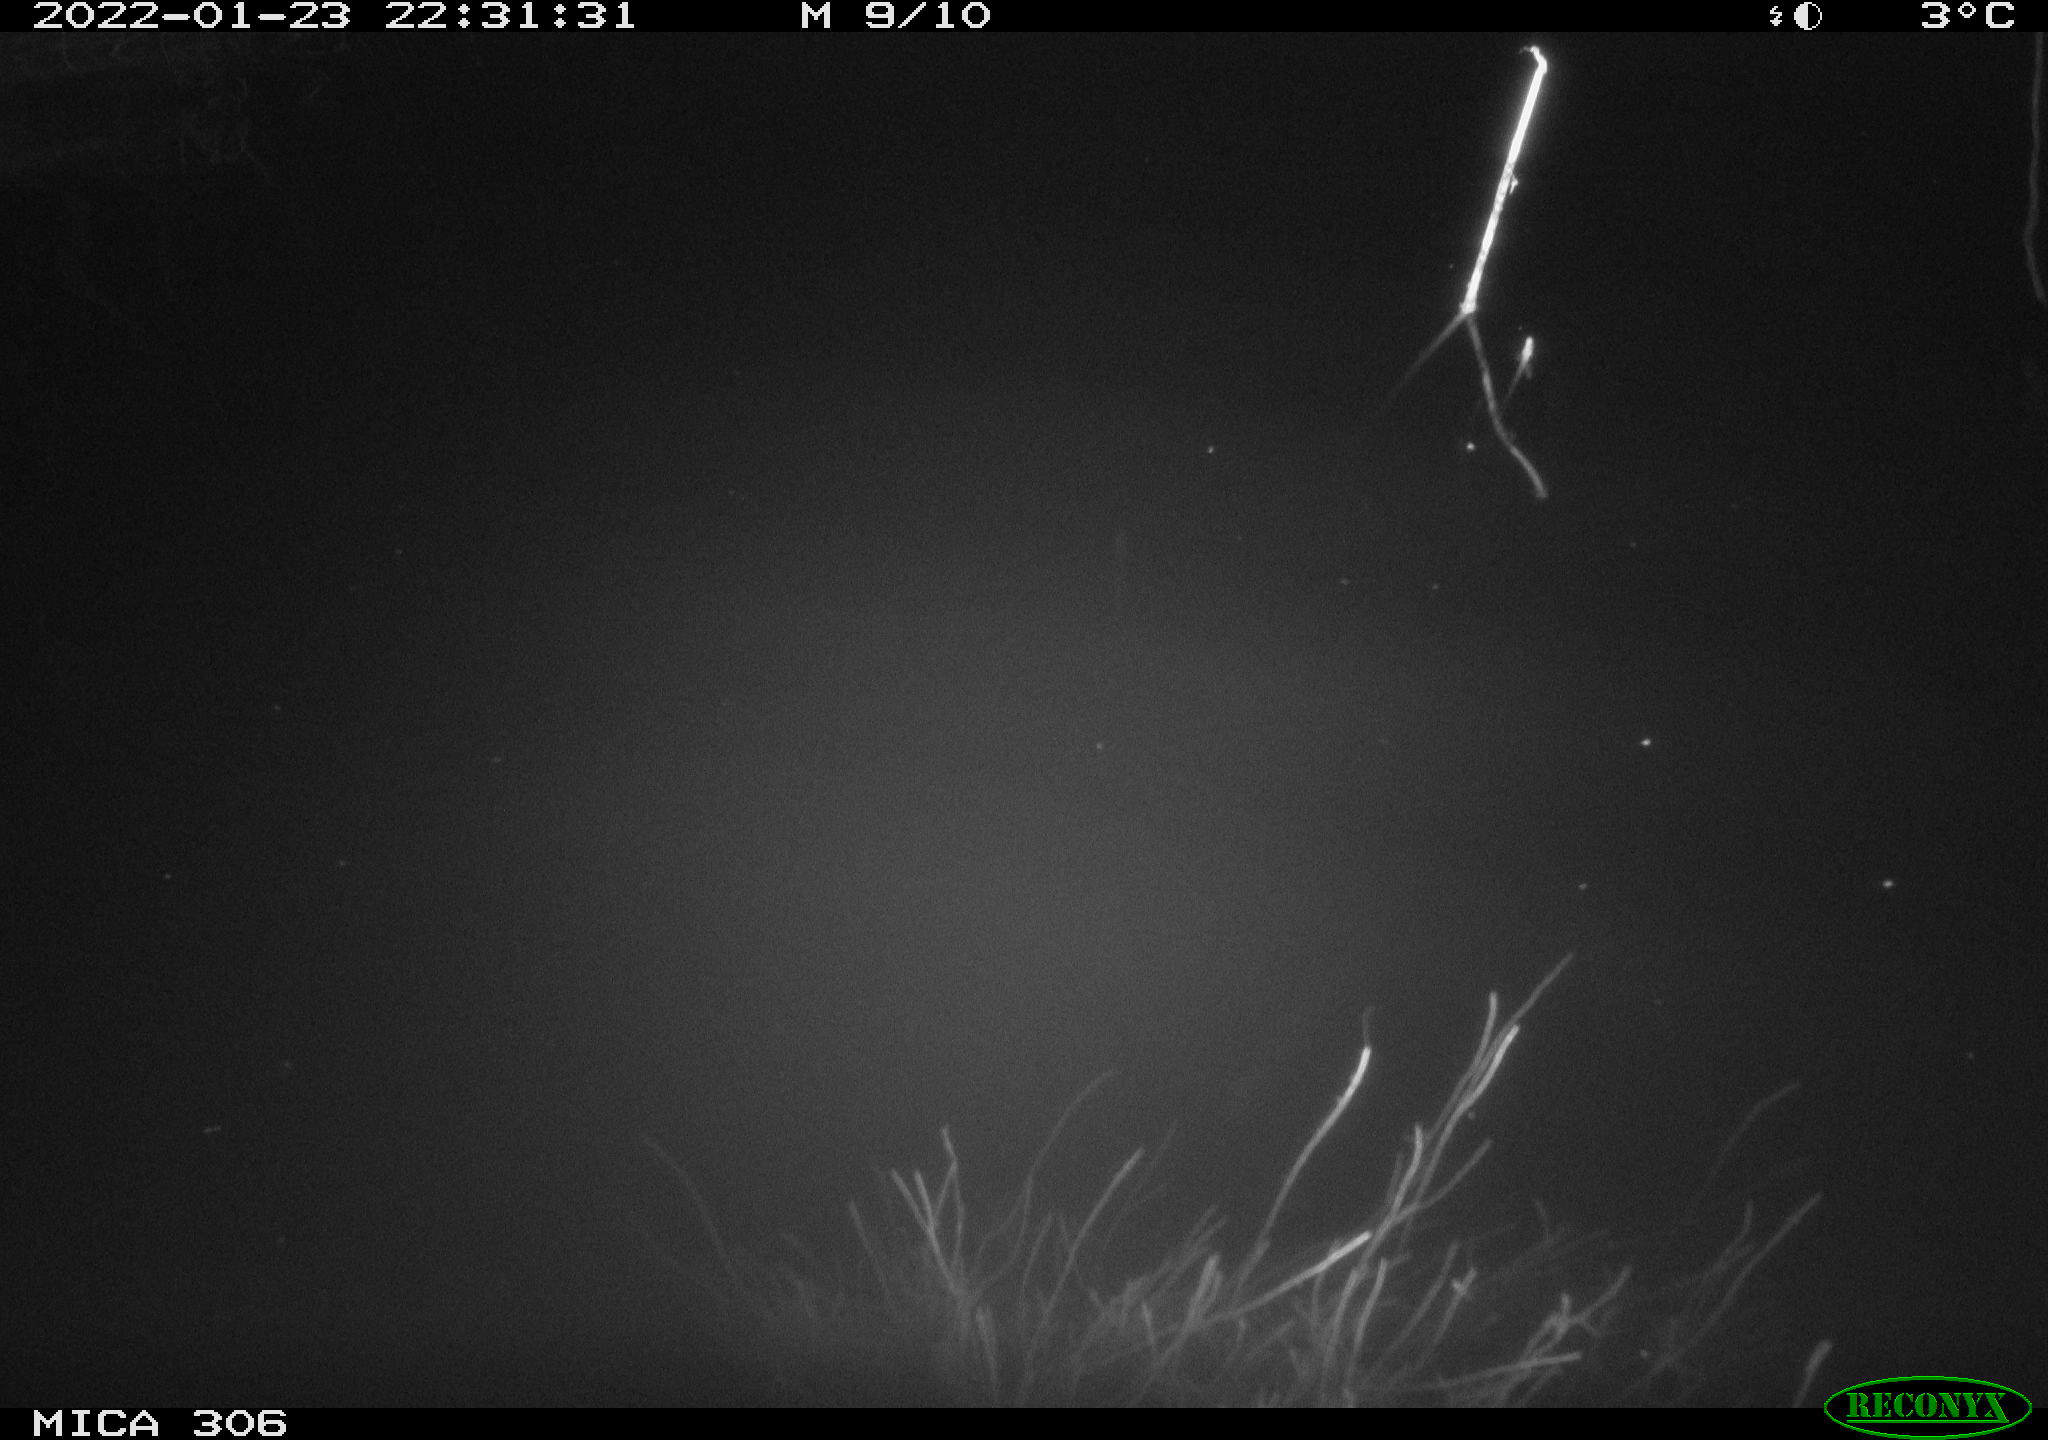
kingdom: Animalia
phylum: Chordata
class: Mammalia
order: Rodentia
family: Cricetidae
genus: Ondatra
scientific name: Ondatra zibethicus
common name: Muskrat
